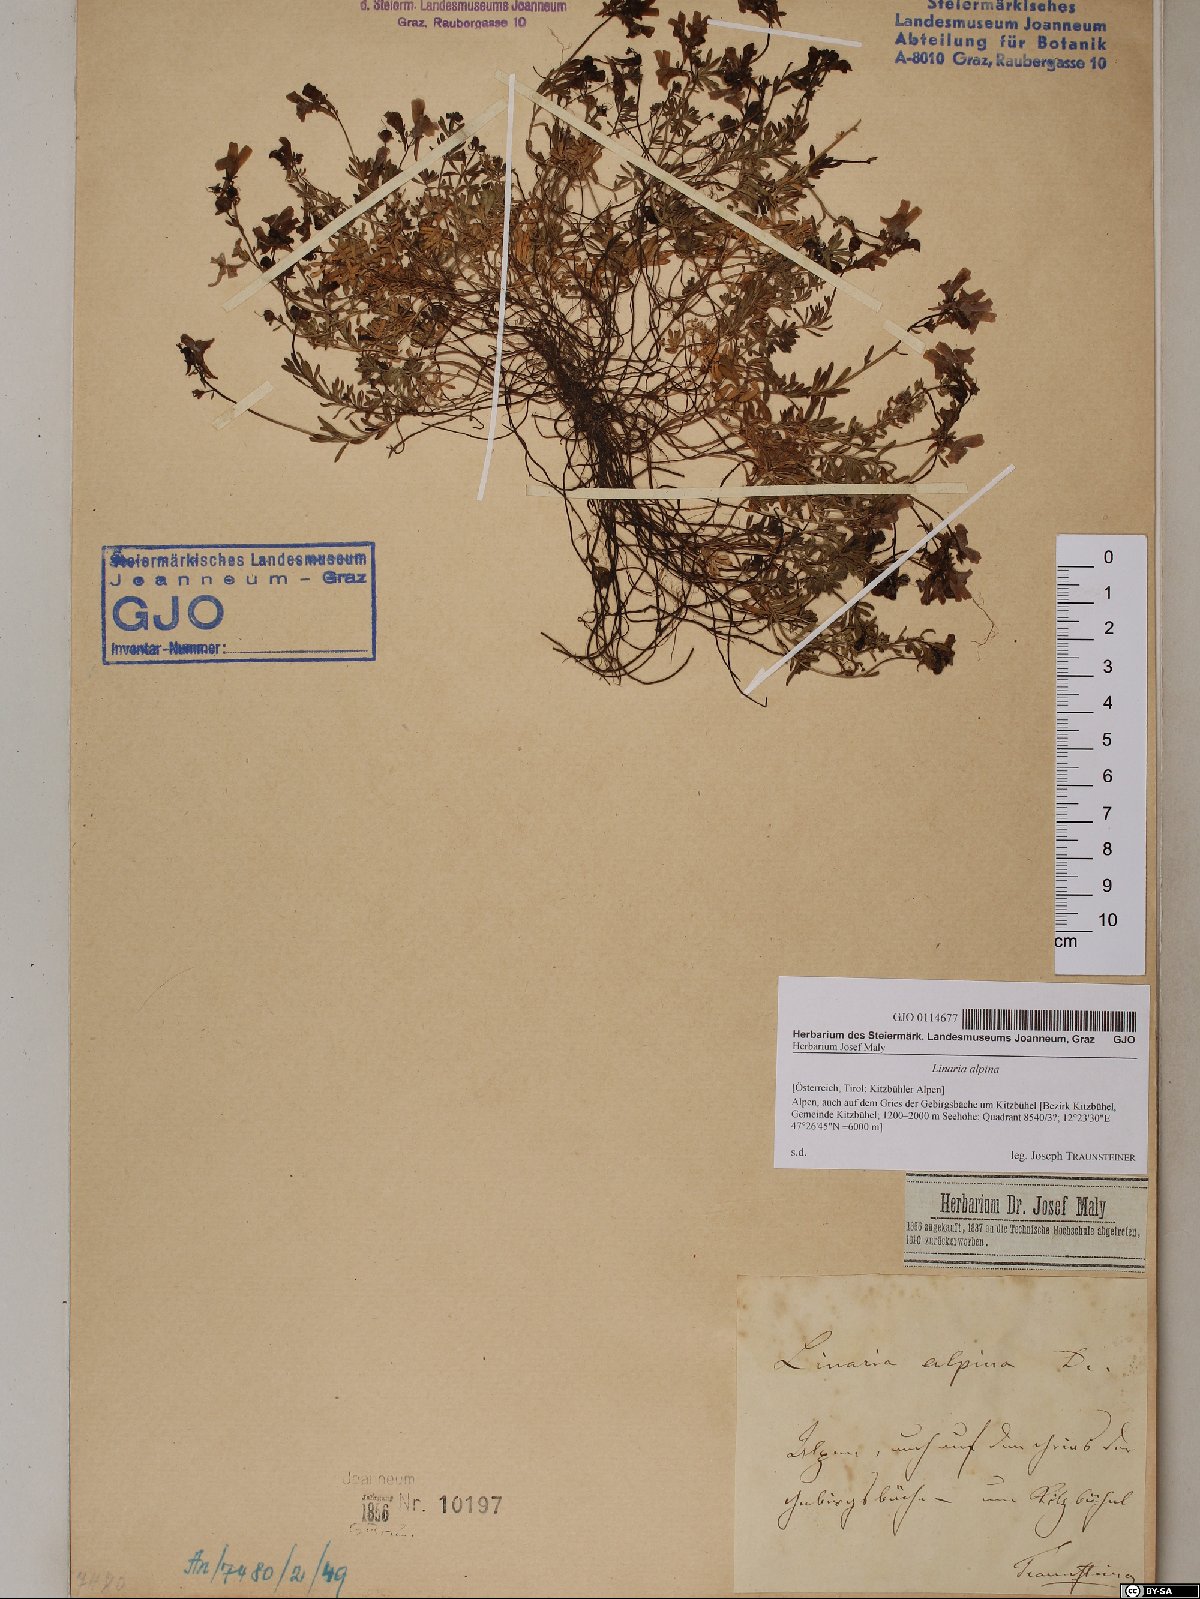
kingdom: Plantae
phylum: Tracheophyta
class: Magnoliopsida
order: Lamiales
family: Plantaginaceae
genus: Linaria
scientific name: Linaria alpina
